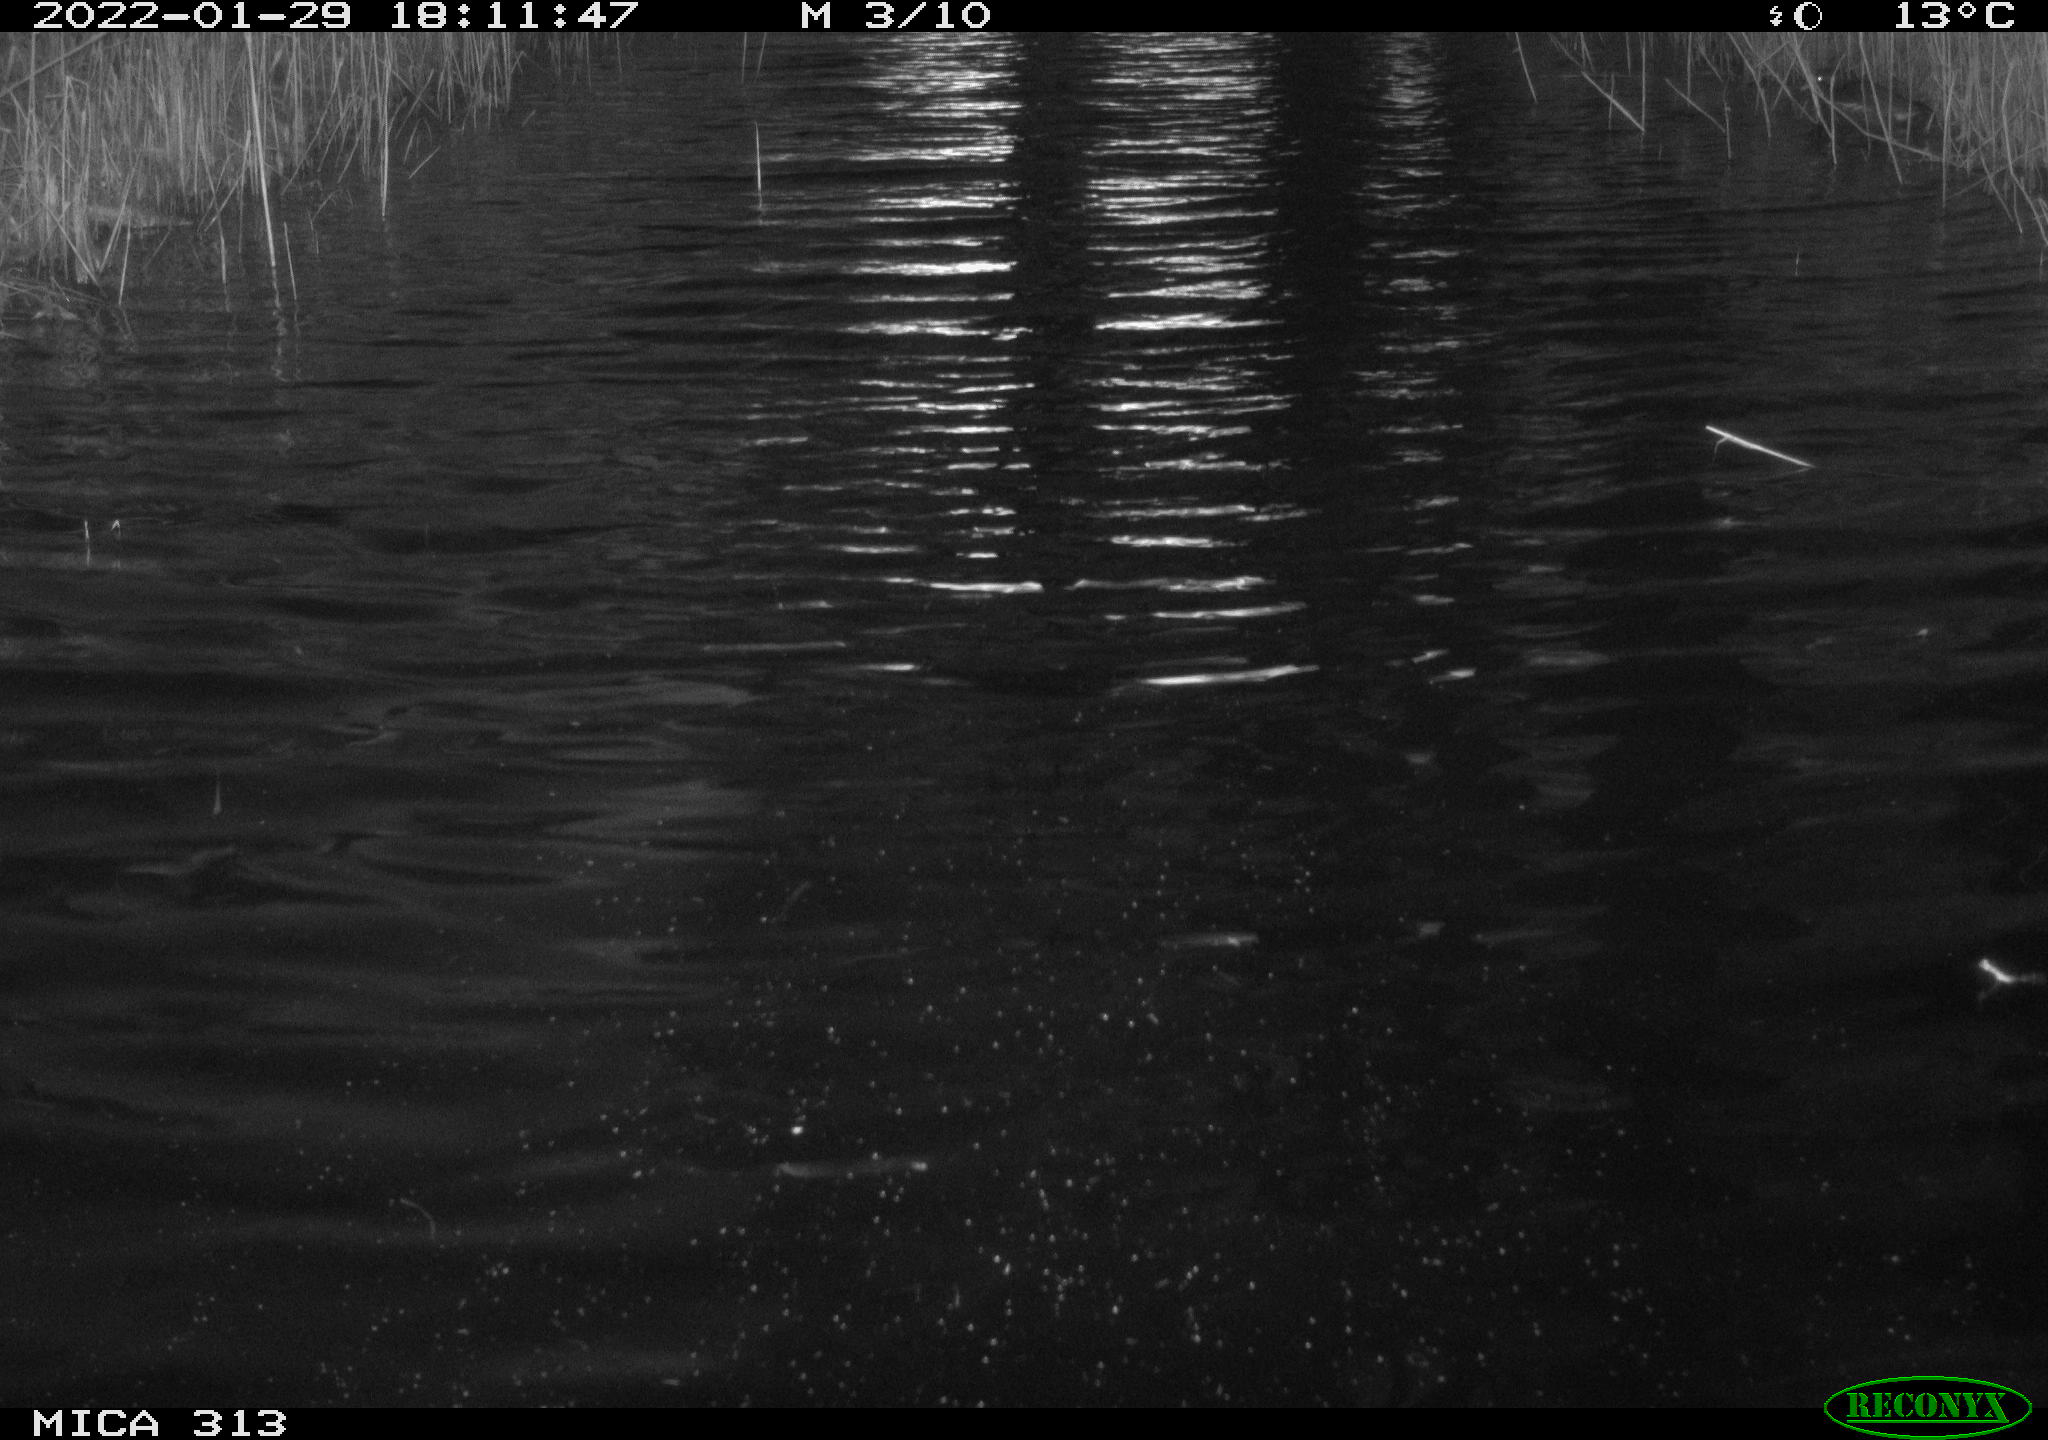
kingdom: Animalia
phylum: Chordata
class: Aves
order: Anseriformes
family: Anatidae
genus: Anas
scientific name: Anas
